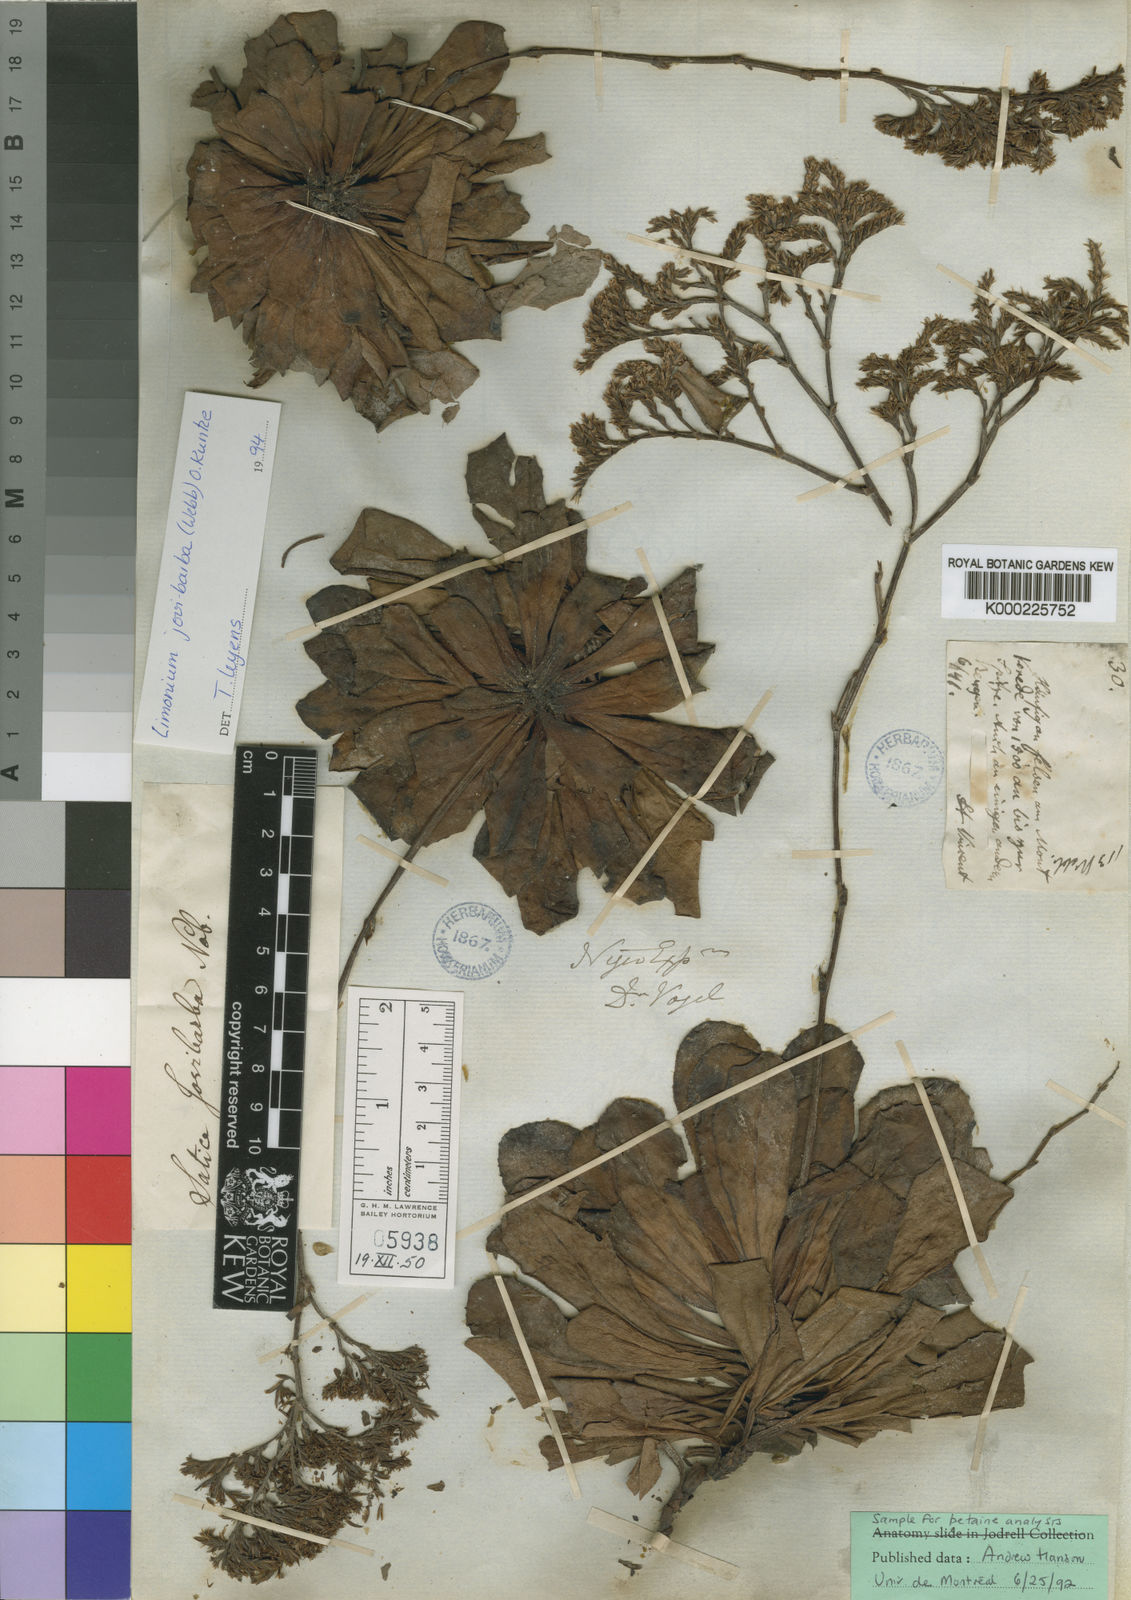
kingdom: Plantae
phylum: Tracheophyta
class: Magnoliopsida
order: Caryophyllales
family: Plumbaginaceae
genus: Limonium
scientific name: Limonium jovibarba
